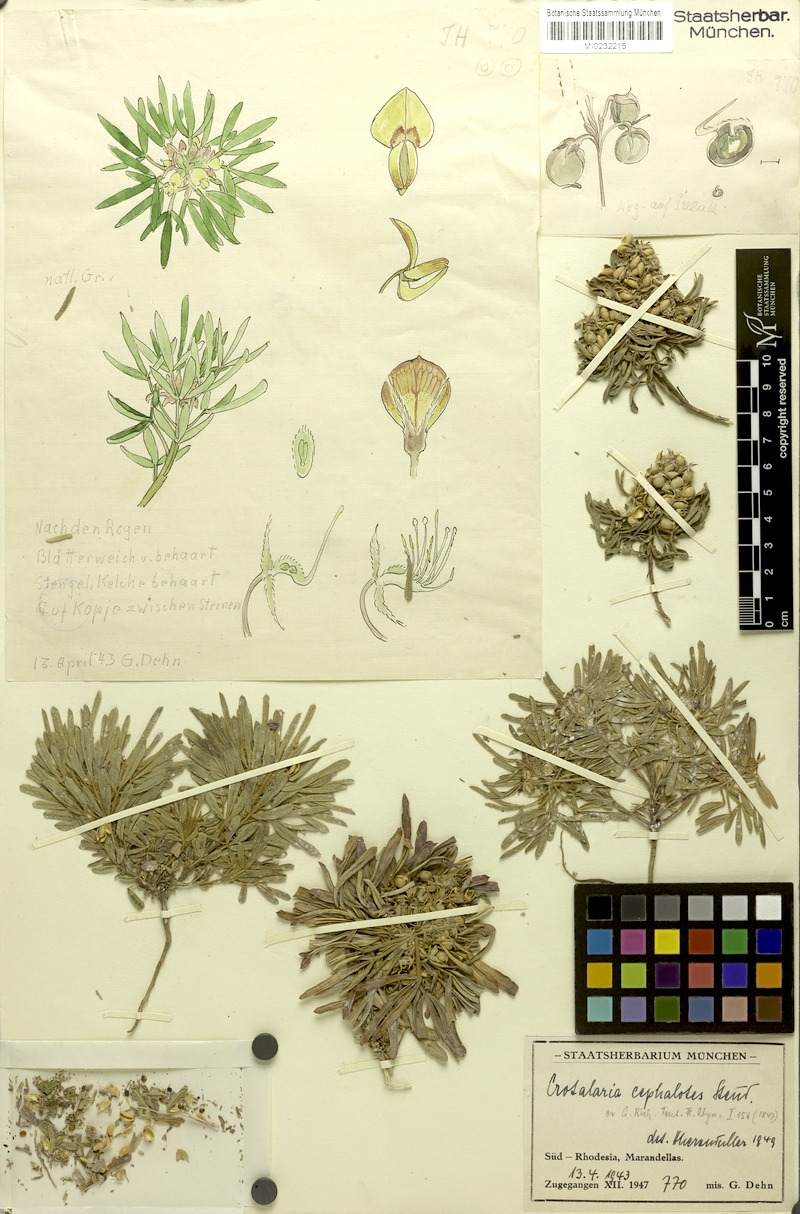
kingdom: Plantae
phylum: Tracheophyta
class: Magnoliopsida
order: Fabales
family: Fabaceae
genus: Crotalaria
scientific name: Crotalaria cephalotes
